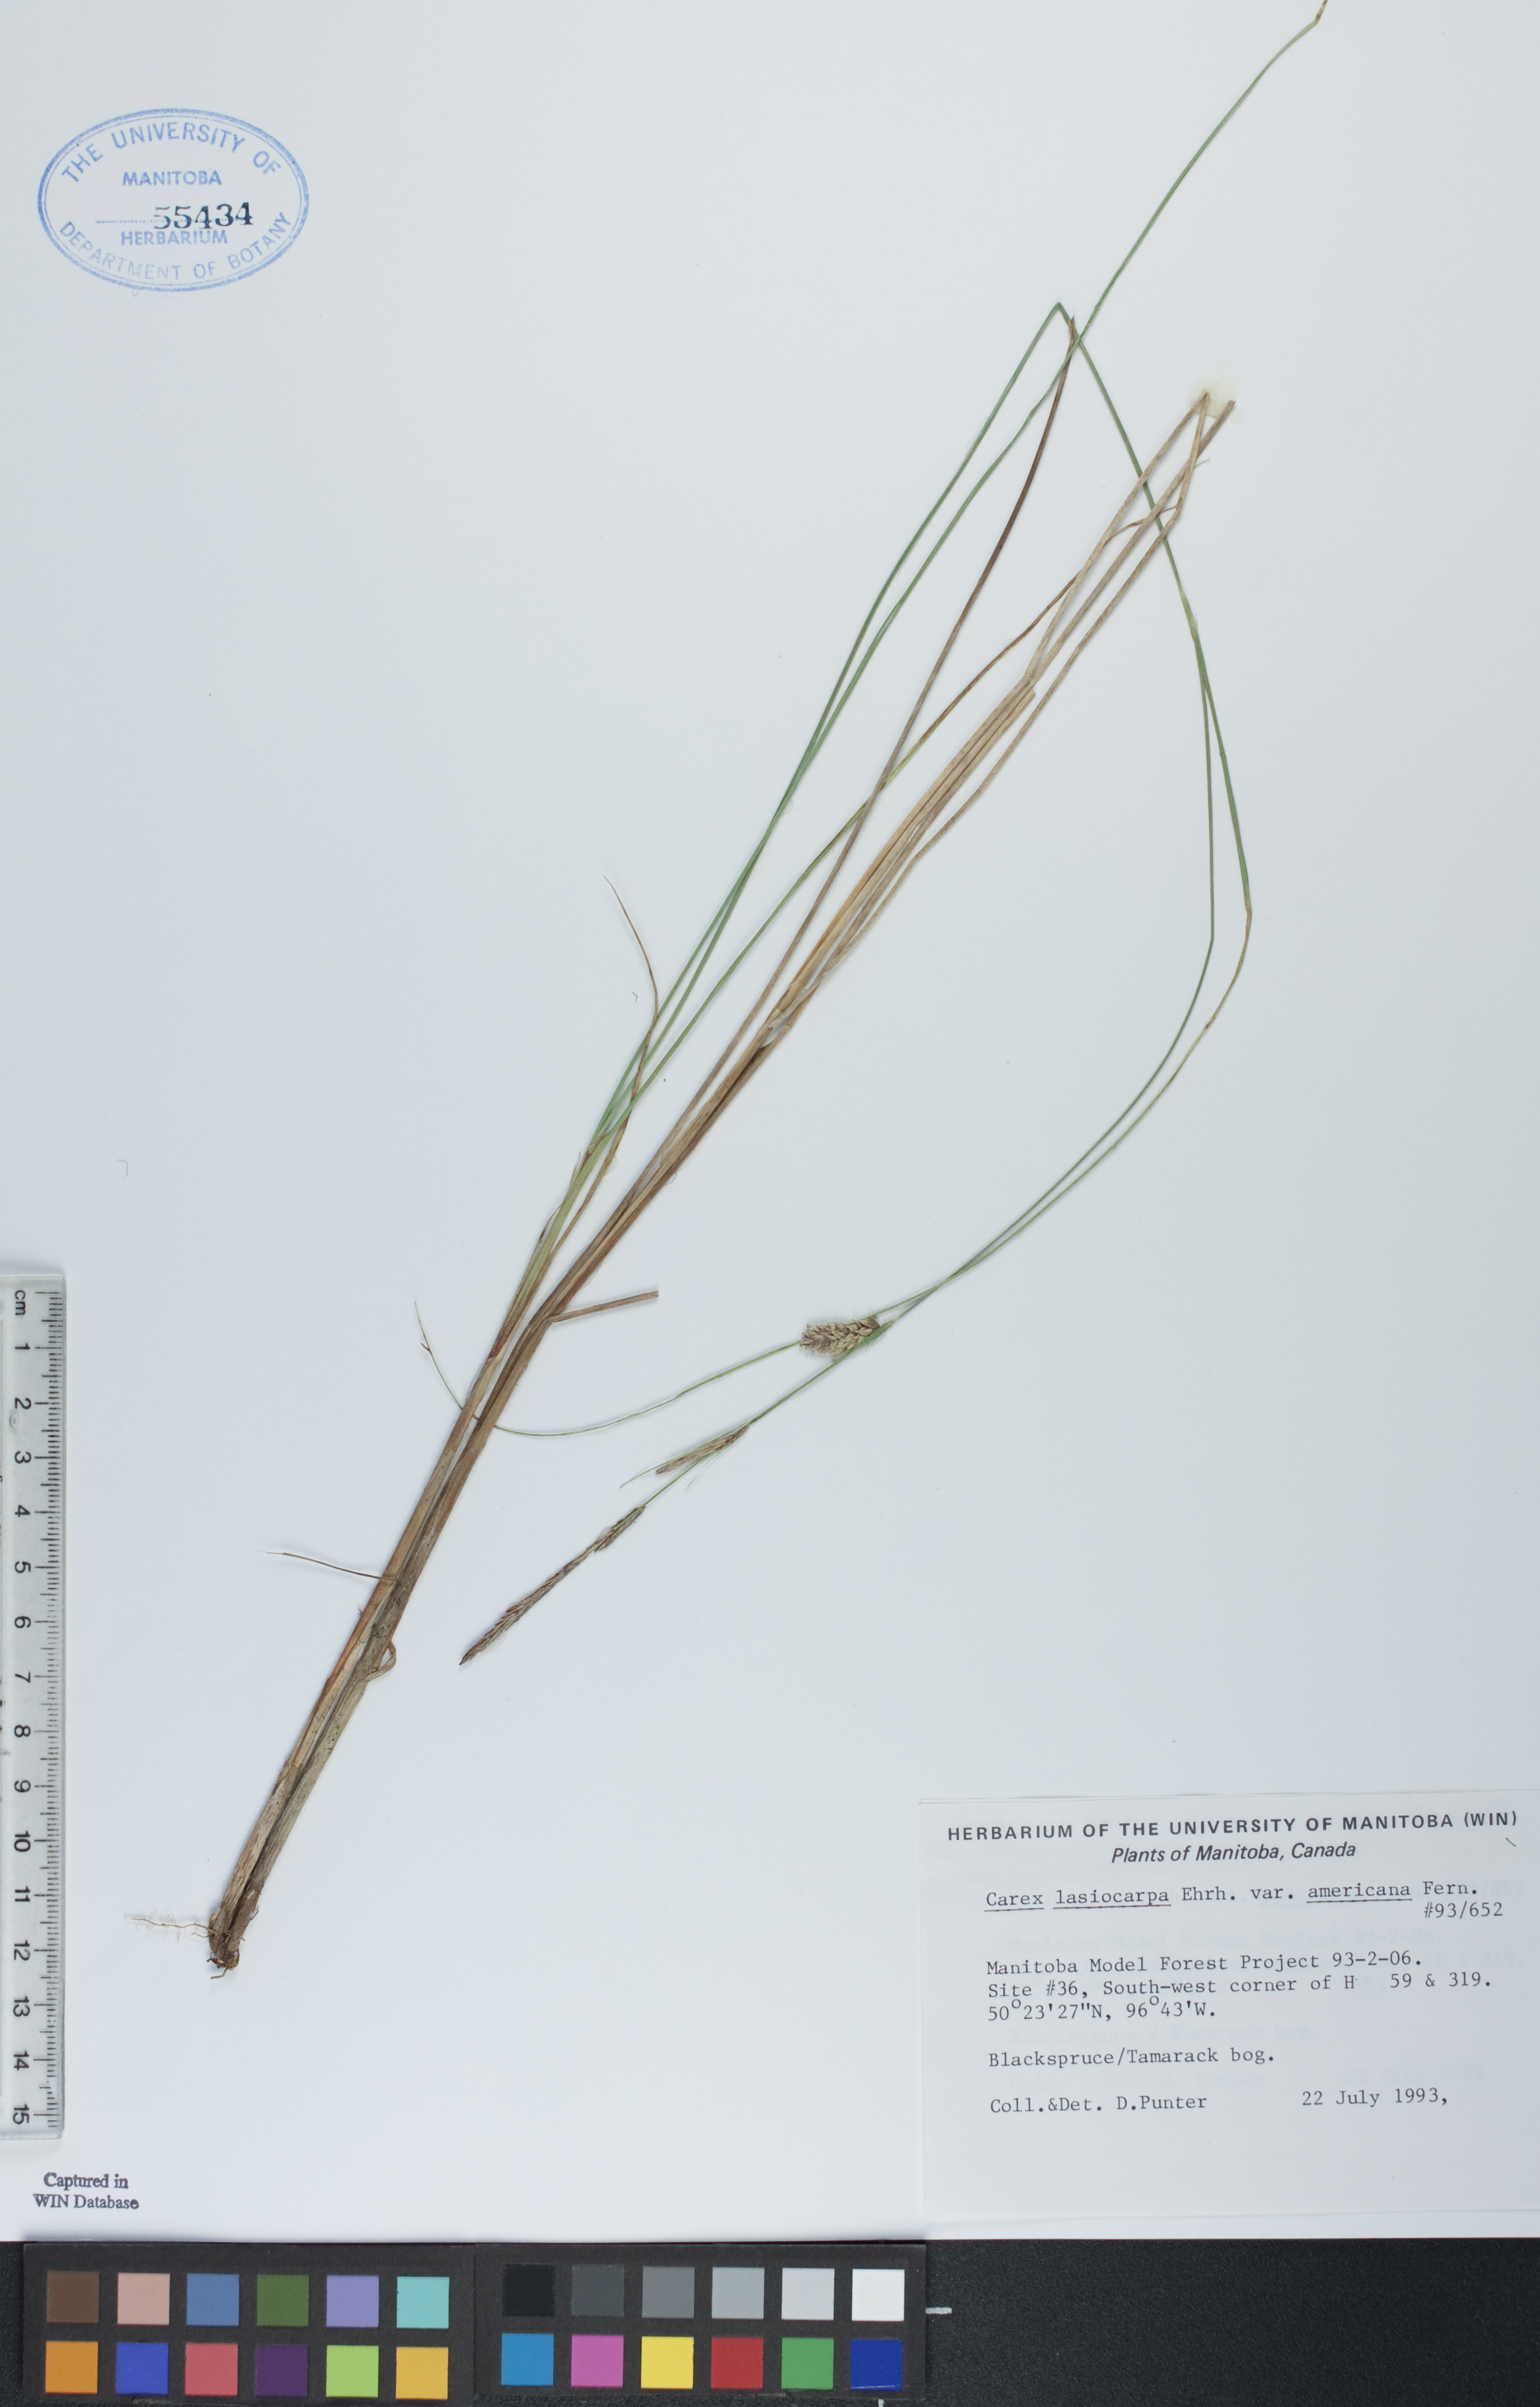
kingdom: Plantae
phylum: Tracheophyta
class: Liliopsida
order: Poales
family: Cyperaceae
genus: Carex
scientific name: Carex lasiocarpa
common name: Slender sedge
